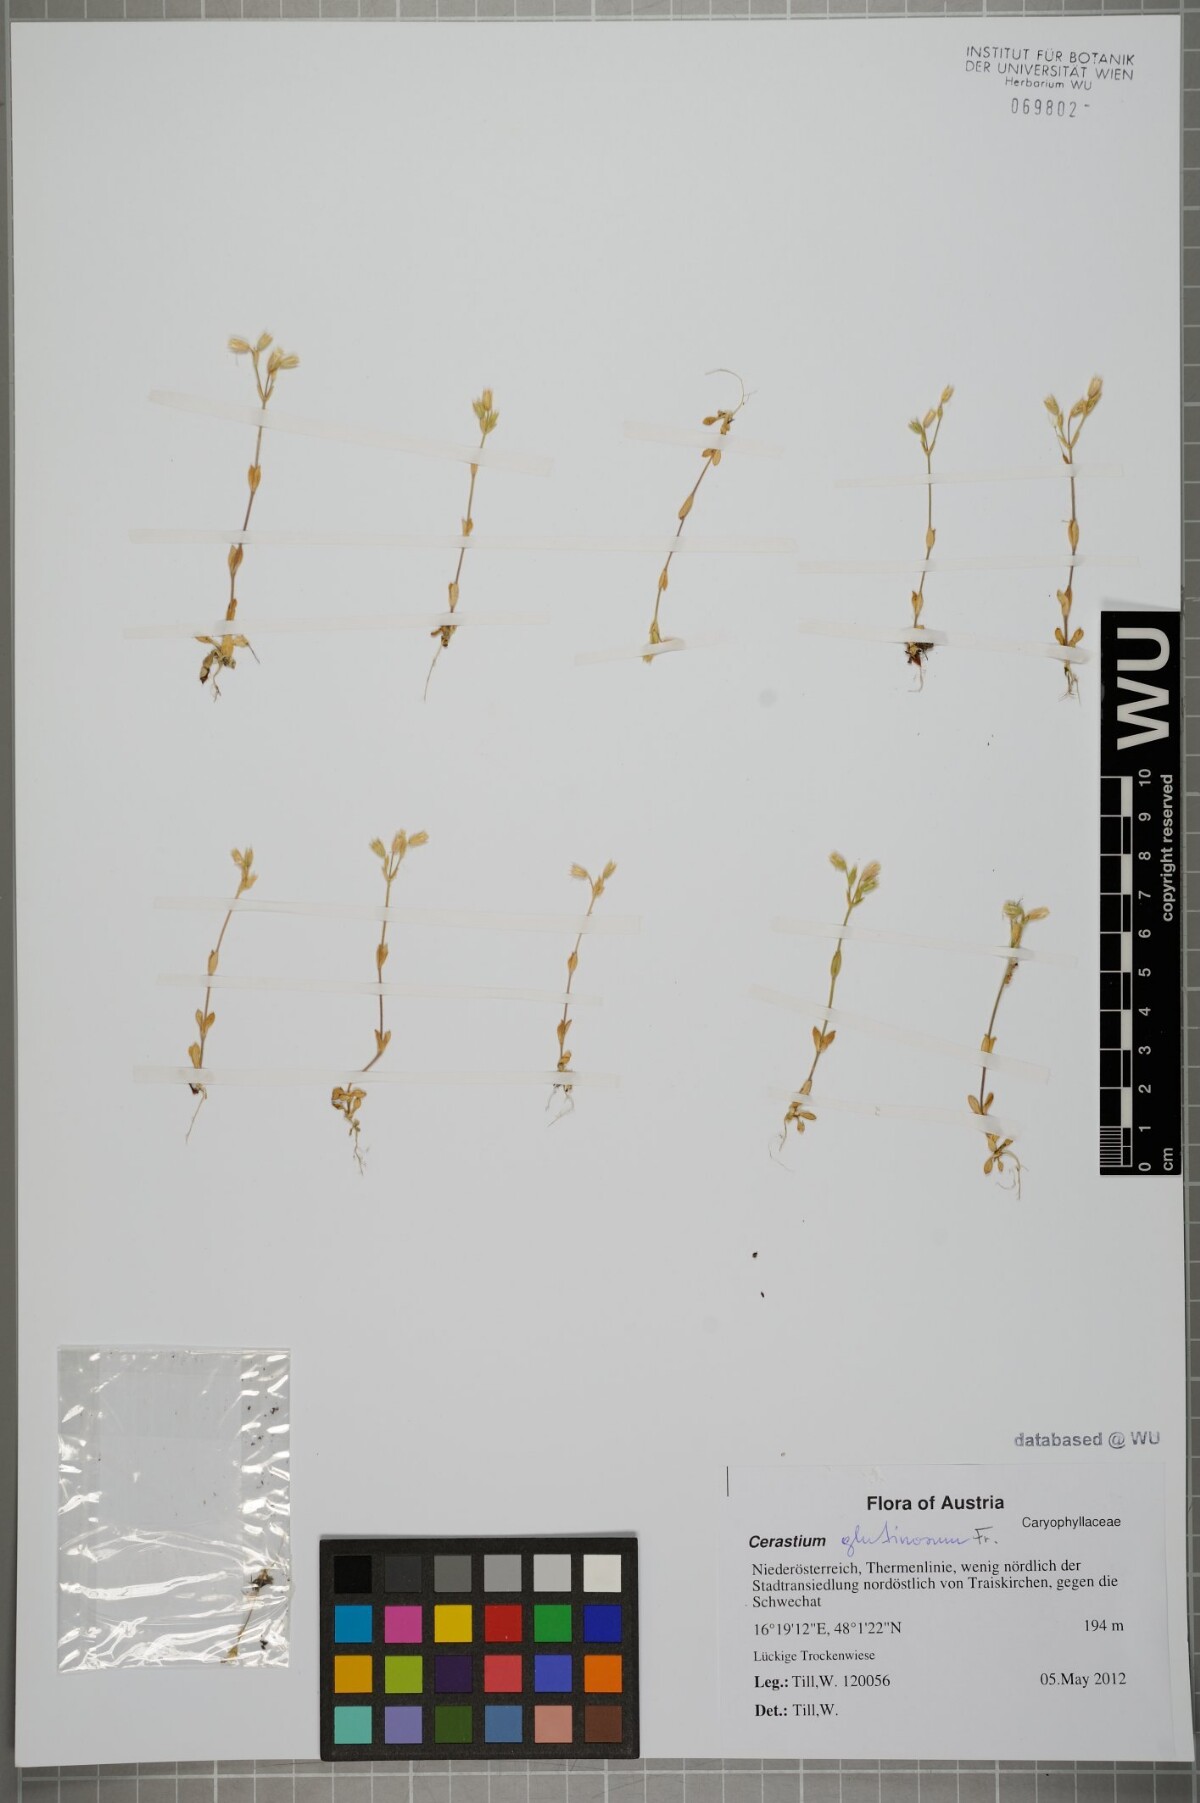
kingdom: Plantae
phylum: Tracheophyta
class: Magnoliopsida
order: Caryophyllales
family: Caryophyllaceae
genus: Cerastium
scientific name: Cerastium glutinosum
